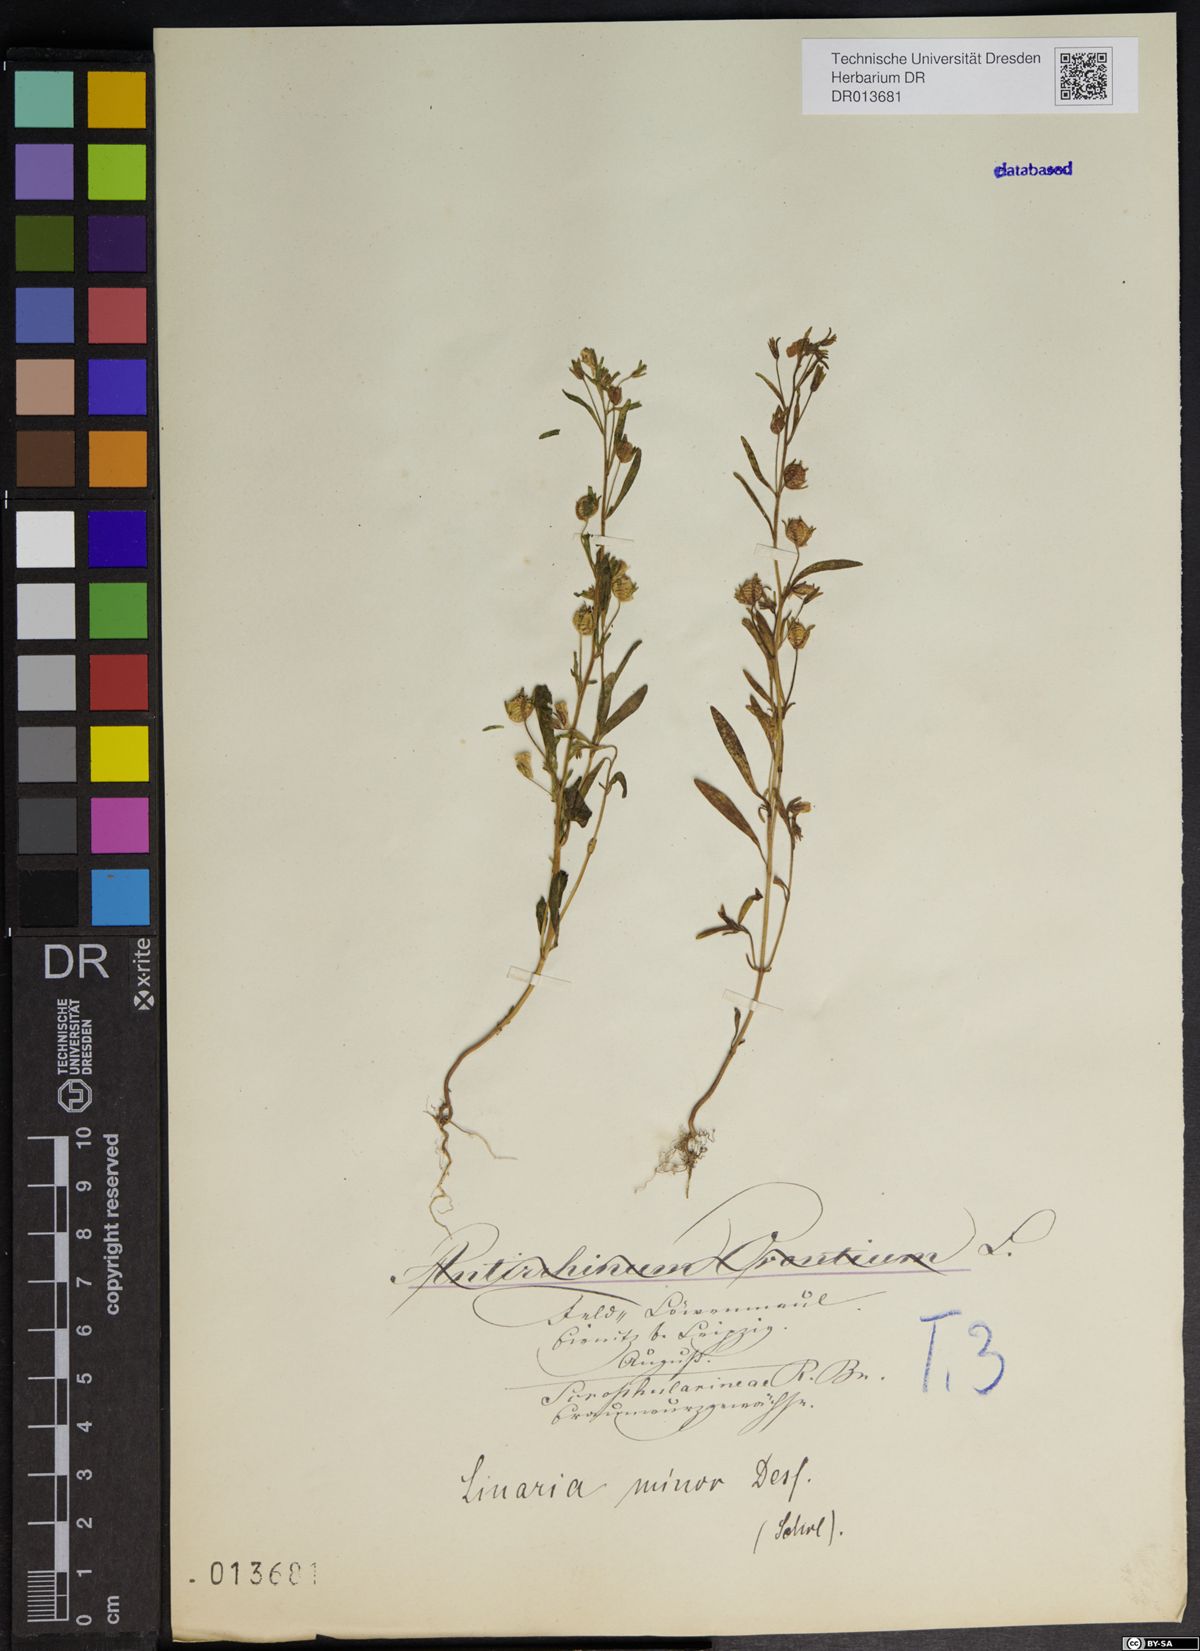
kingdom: Plantae
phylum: Tracheophyta
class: Magnoliopsida
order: Lamiales
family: Plantaginaceae
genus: Chaenorhinum
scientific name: Chaenorhinum minus
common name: Dwarf snapdragon
